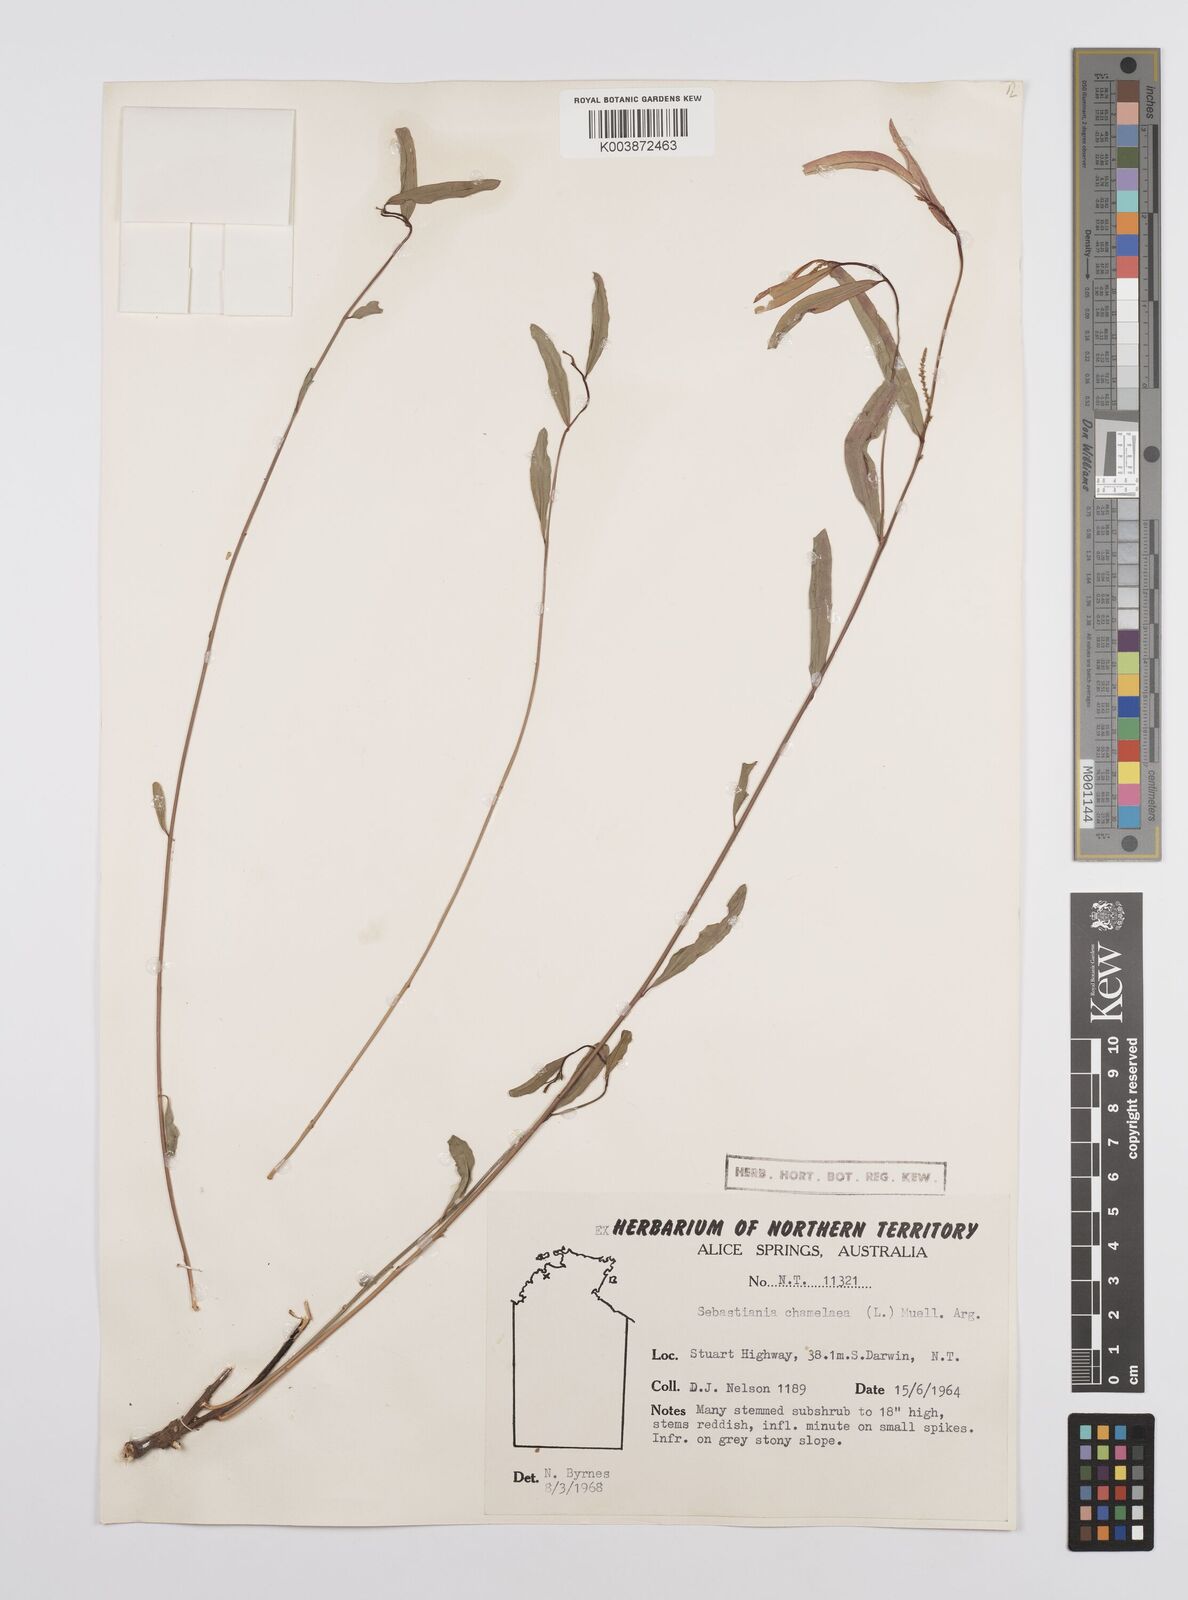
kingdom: Plantae
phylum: Tracheophyta
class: Magnoliopsida
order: Malpighiales
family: Euphorbiaceae
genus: Microstachys
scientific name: Microstachys chamaelea
